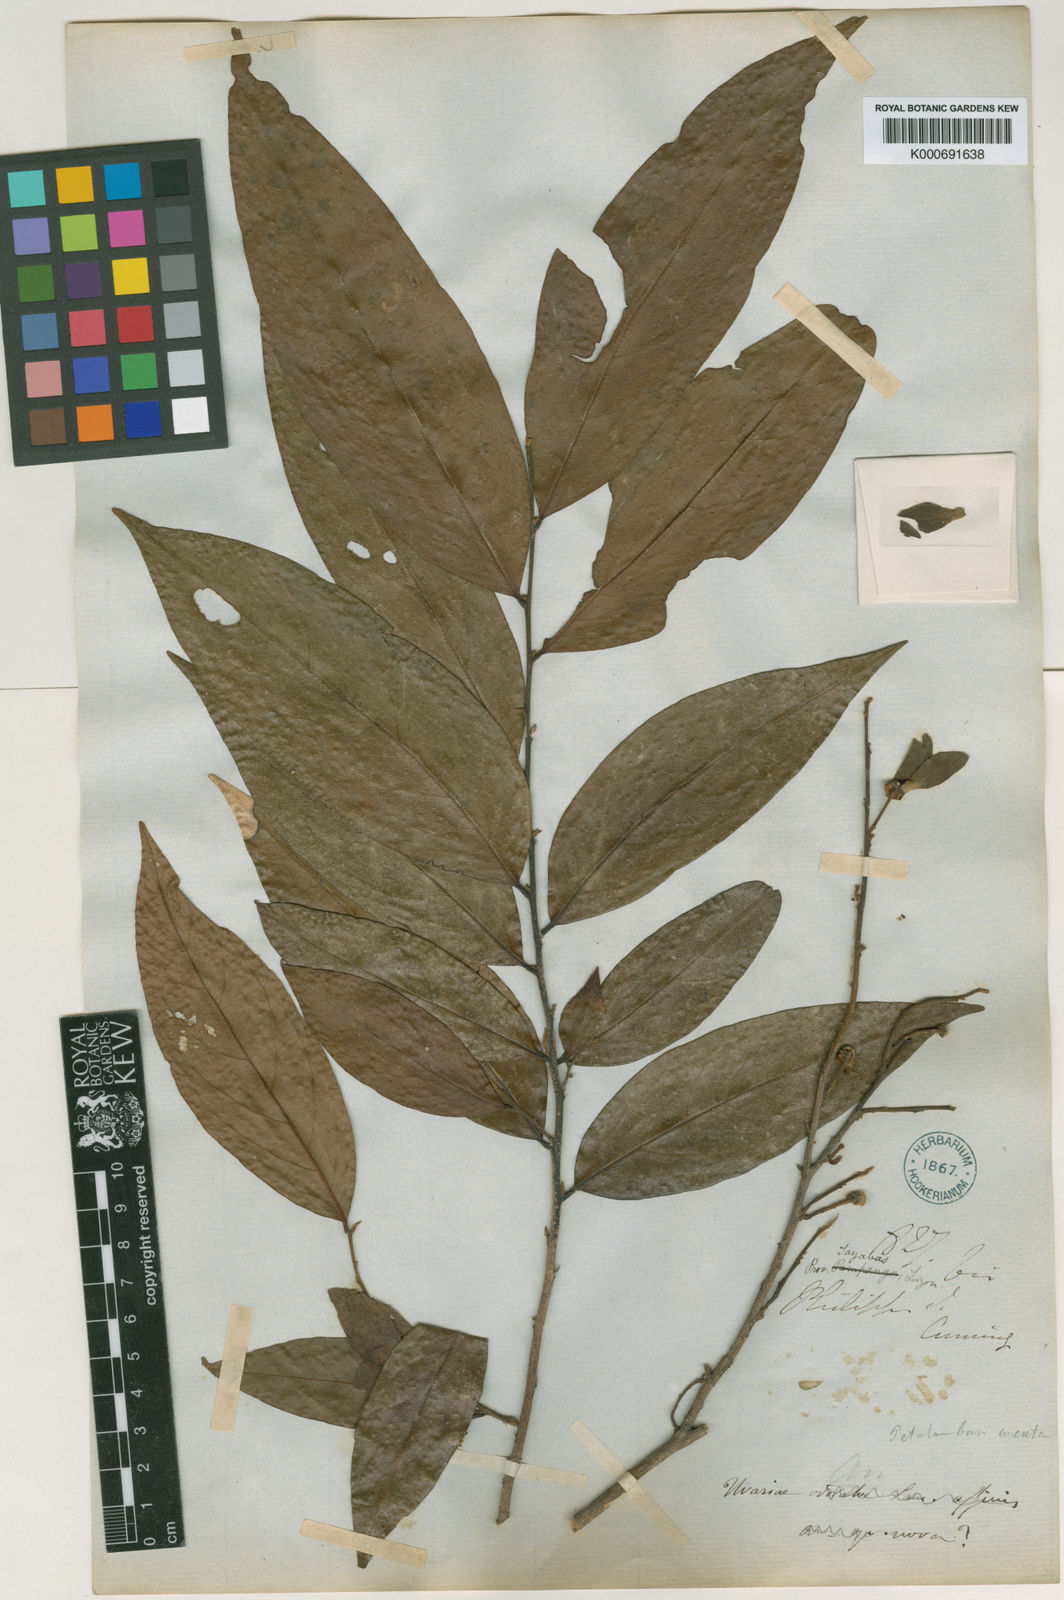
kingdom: Plantae
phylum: Tracheophyta
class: Magnoliopsida
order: Magnoliales
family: Annonaceae
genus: Hubera
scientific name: Hubera jenkinsii
